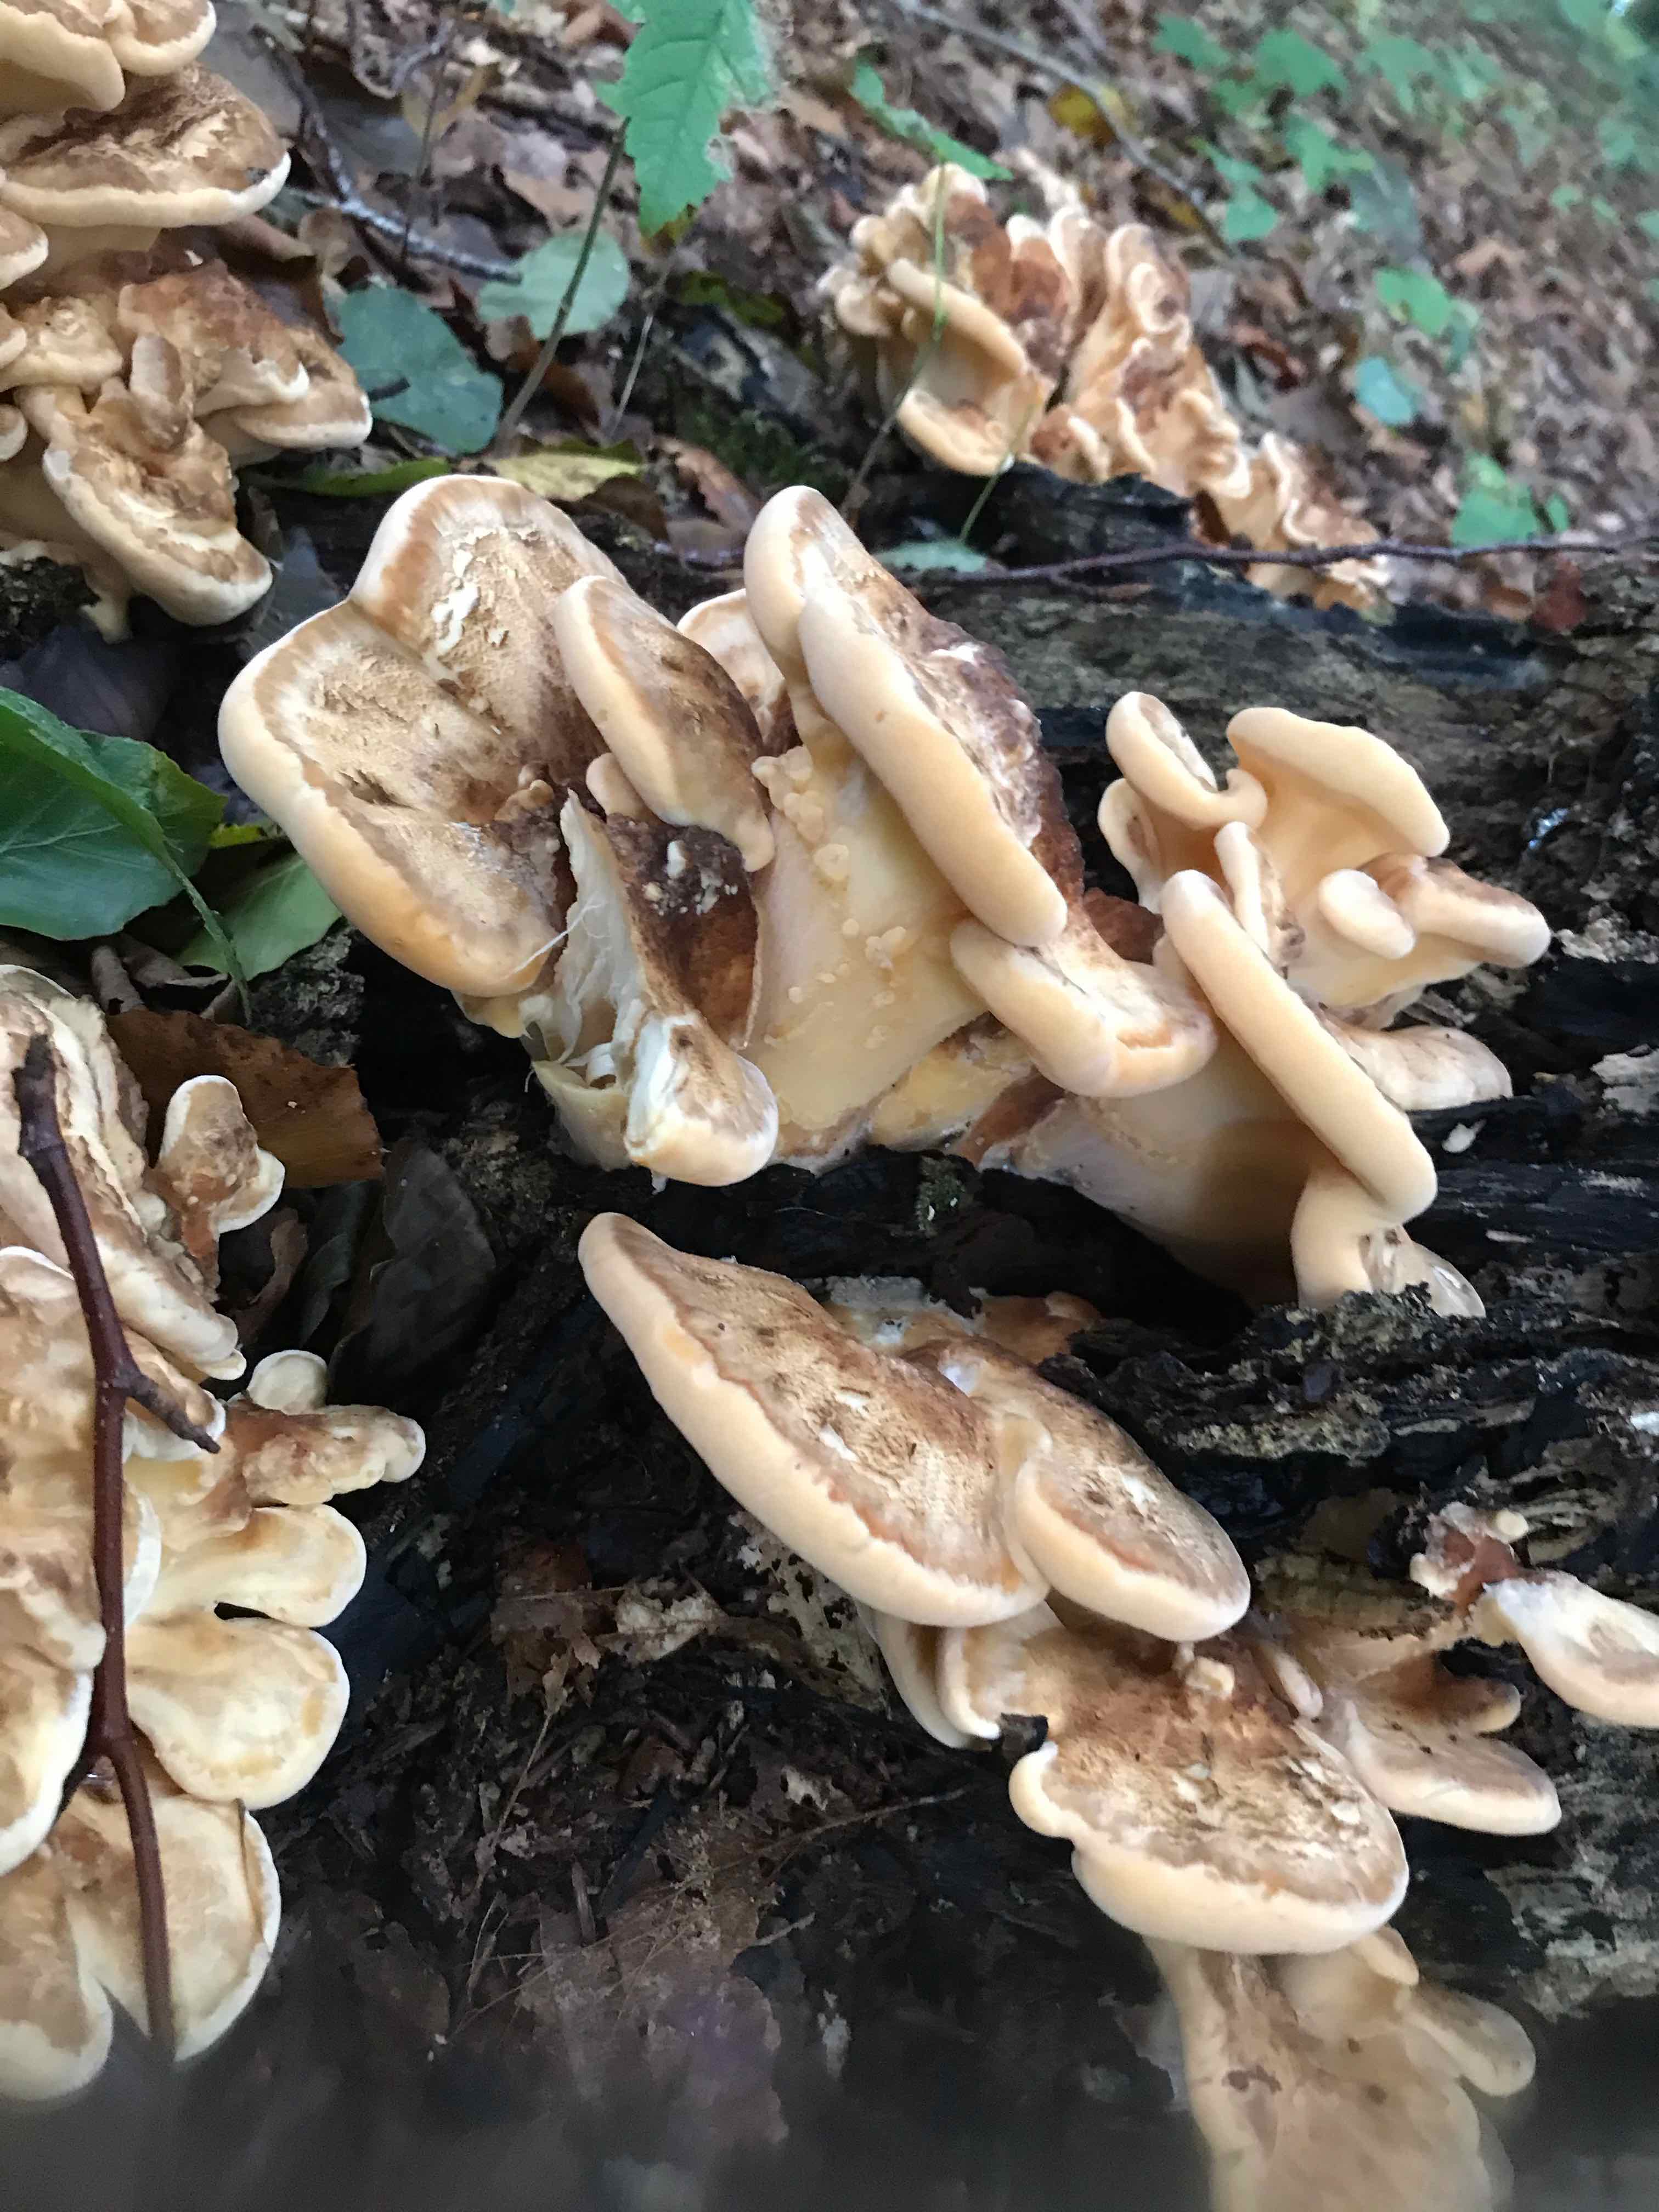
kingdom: Fungi
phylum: Basidiomycota
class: Agaricomycetes
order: Polyporales
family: Meripilaceae
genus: Meripilus
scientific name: Meripilus giganteus
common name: kæmpeporesvamp
